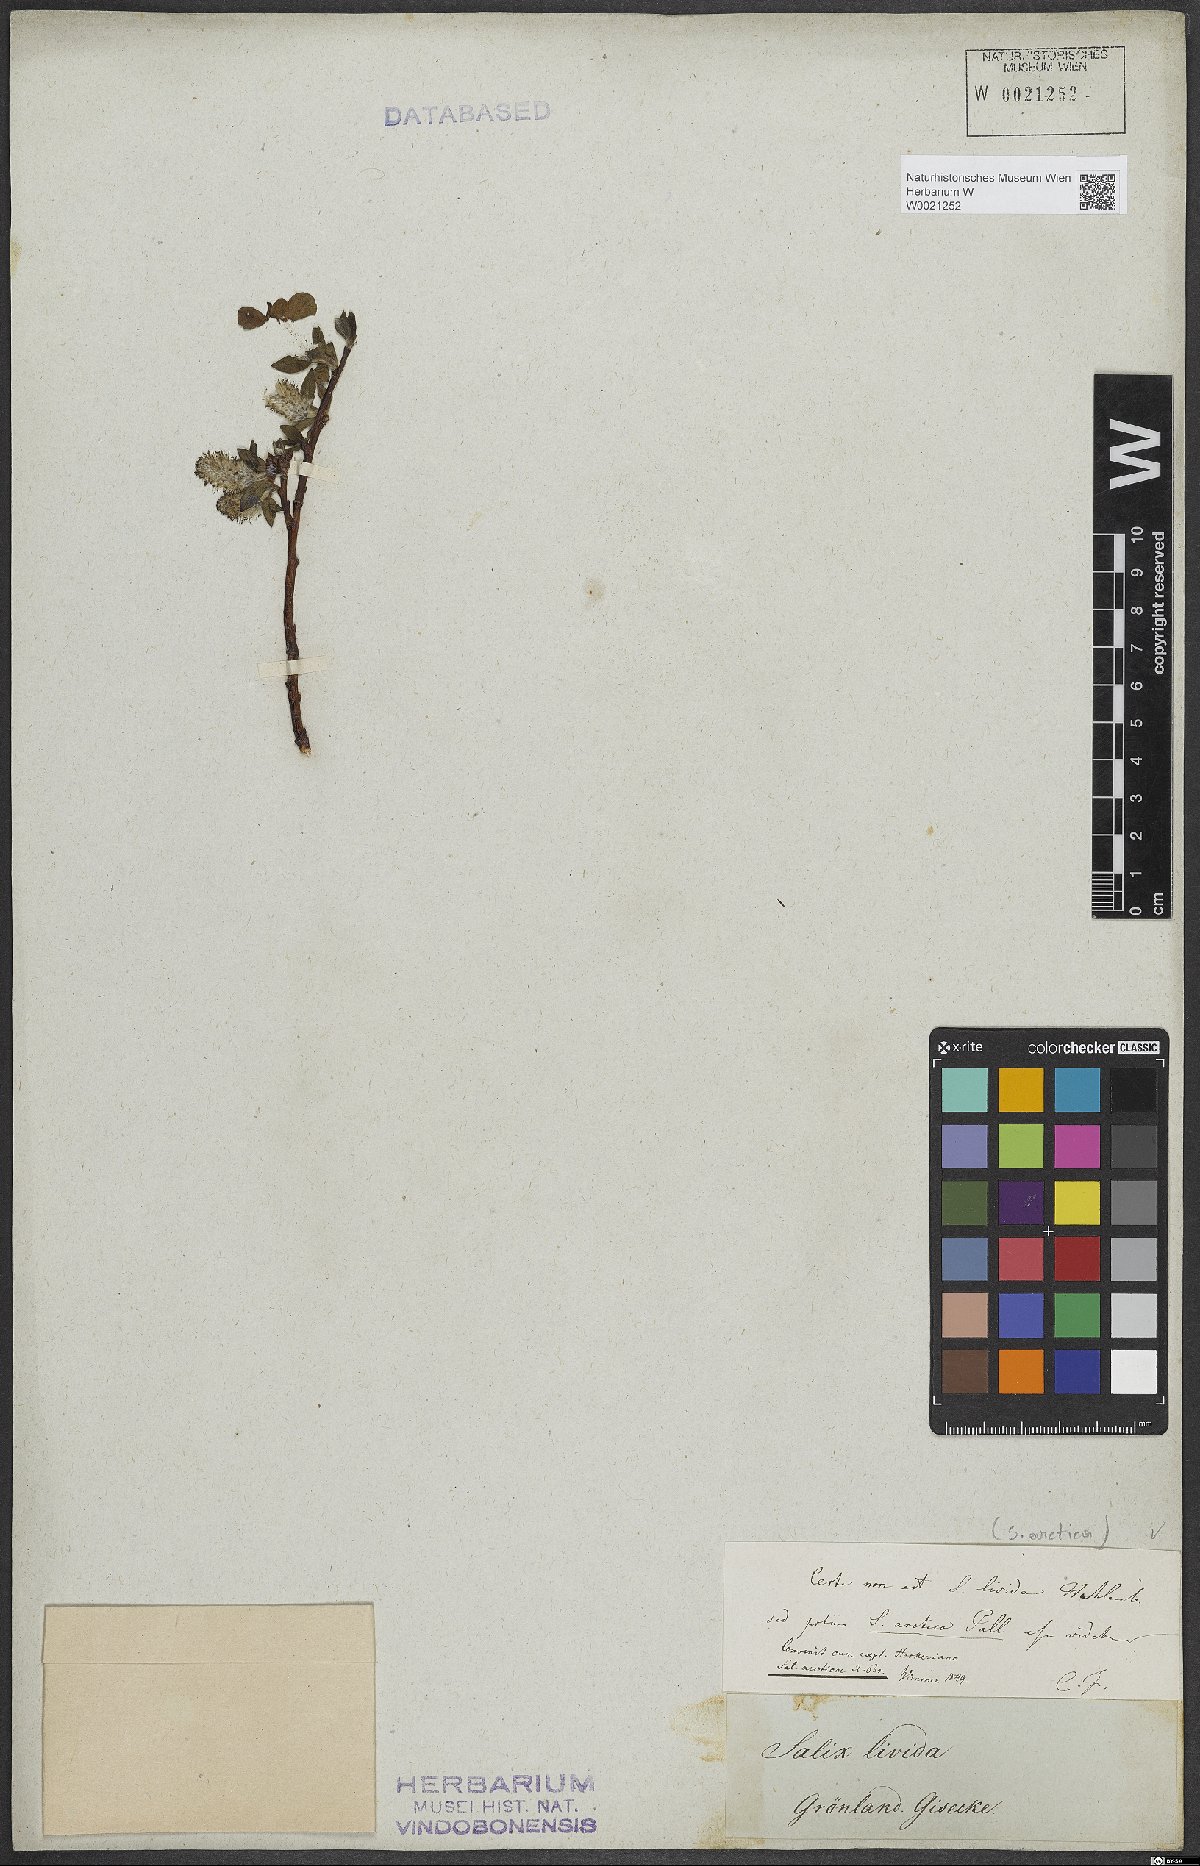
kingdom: Plantae
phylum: Tracheophyta
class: Magnoliopsida
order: Malpighiales
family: Salicaceae
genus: Salix
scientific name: Salix arctica
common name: Arctic willow
